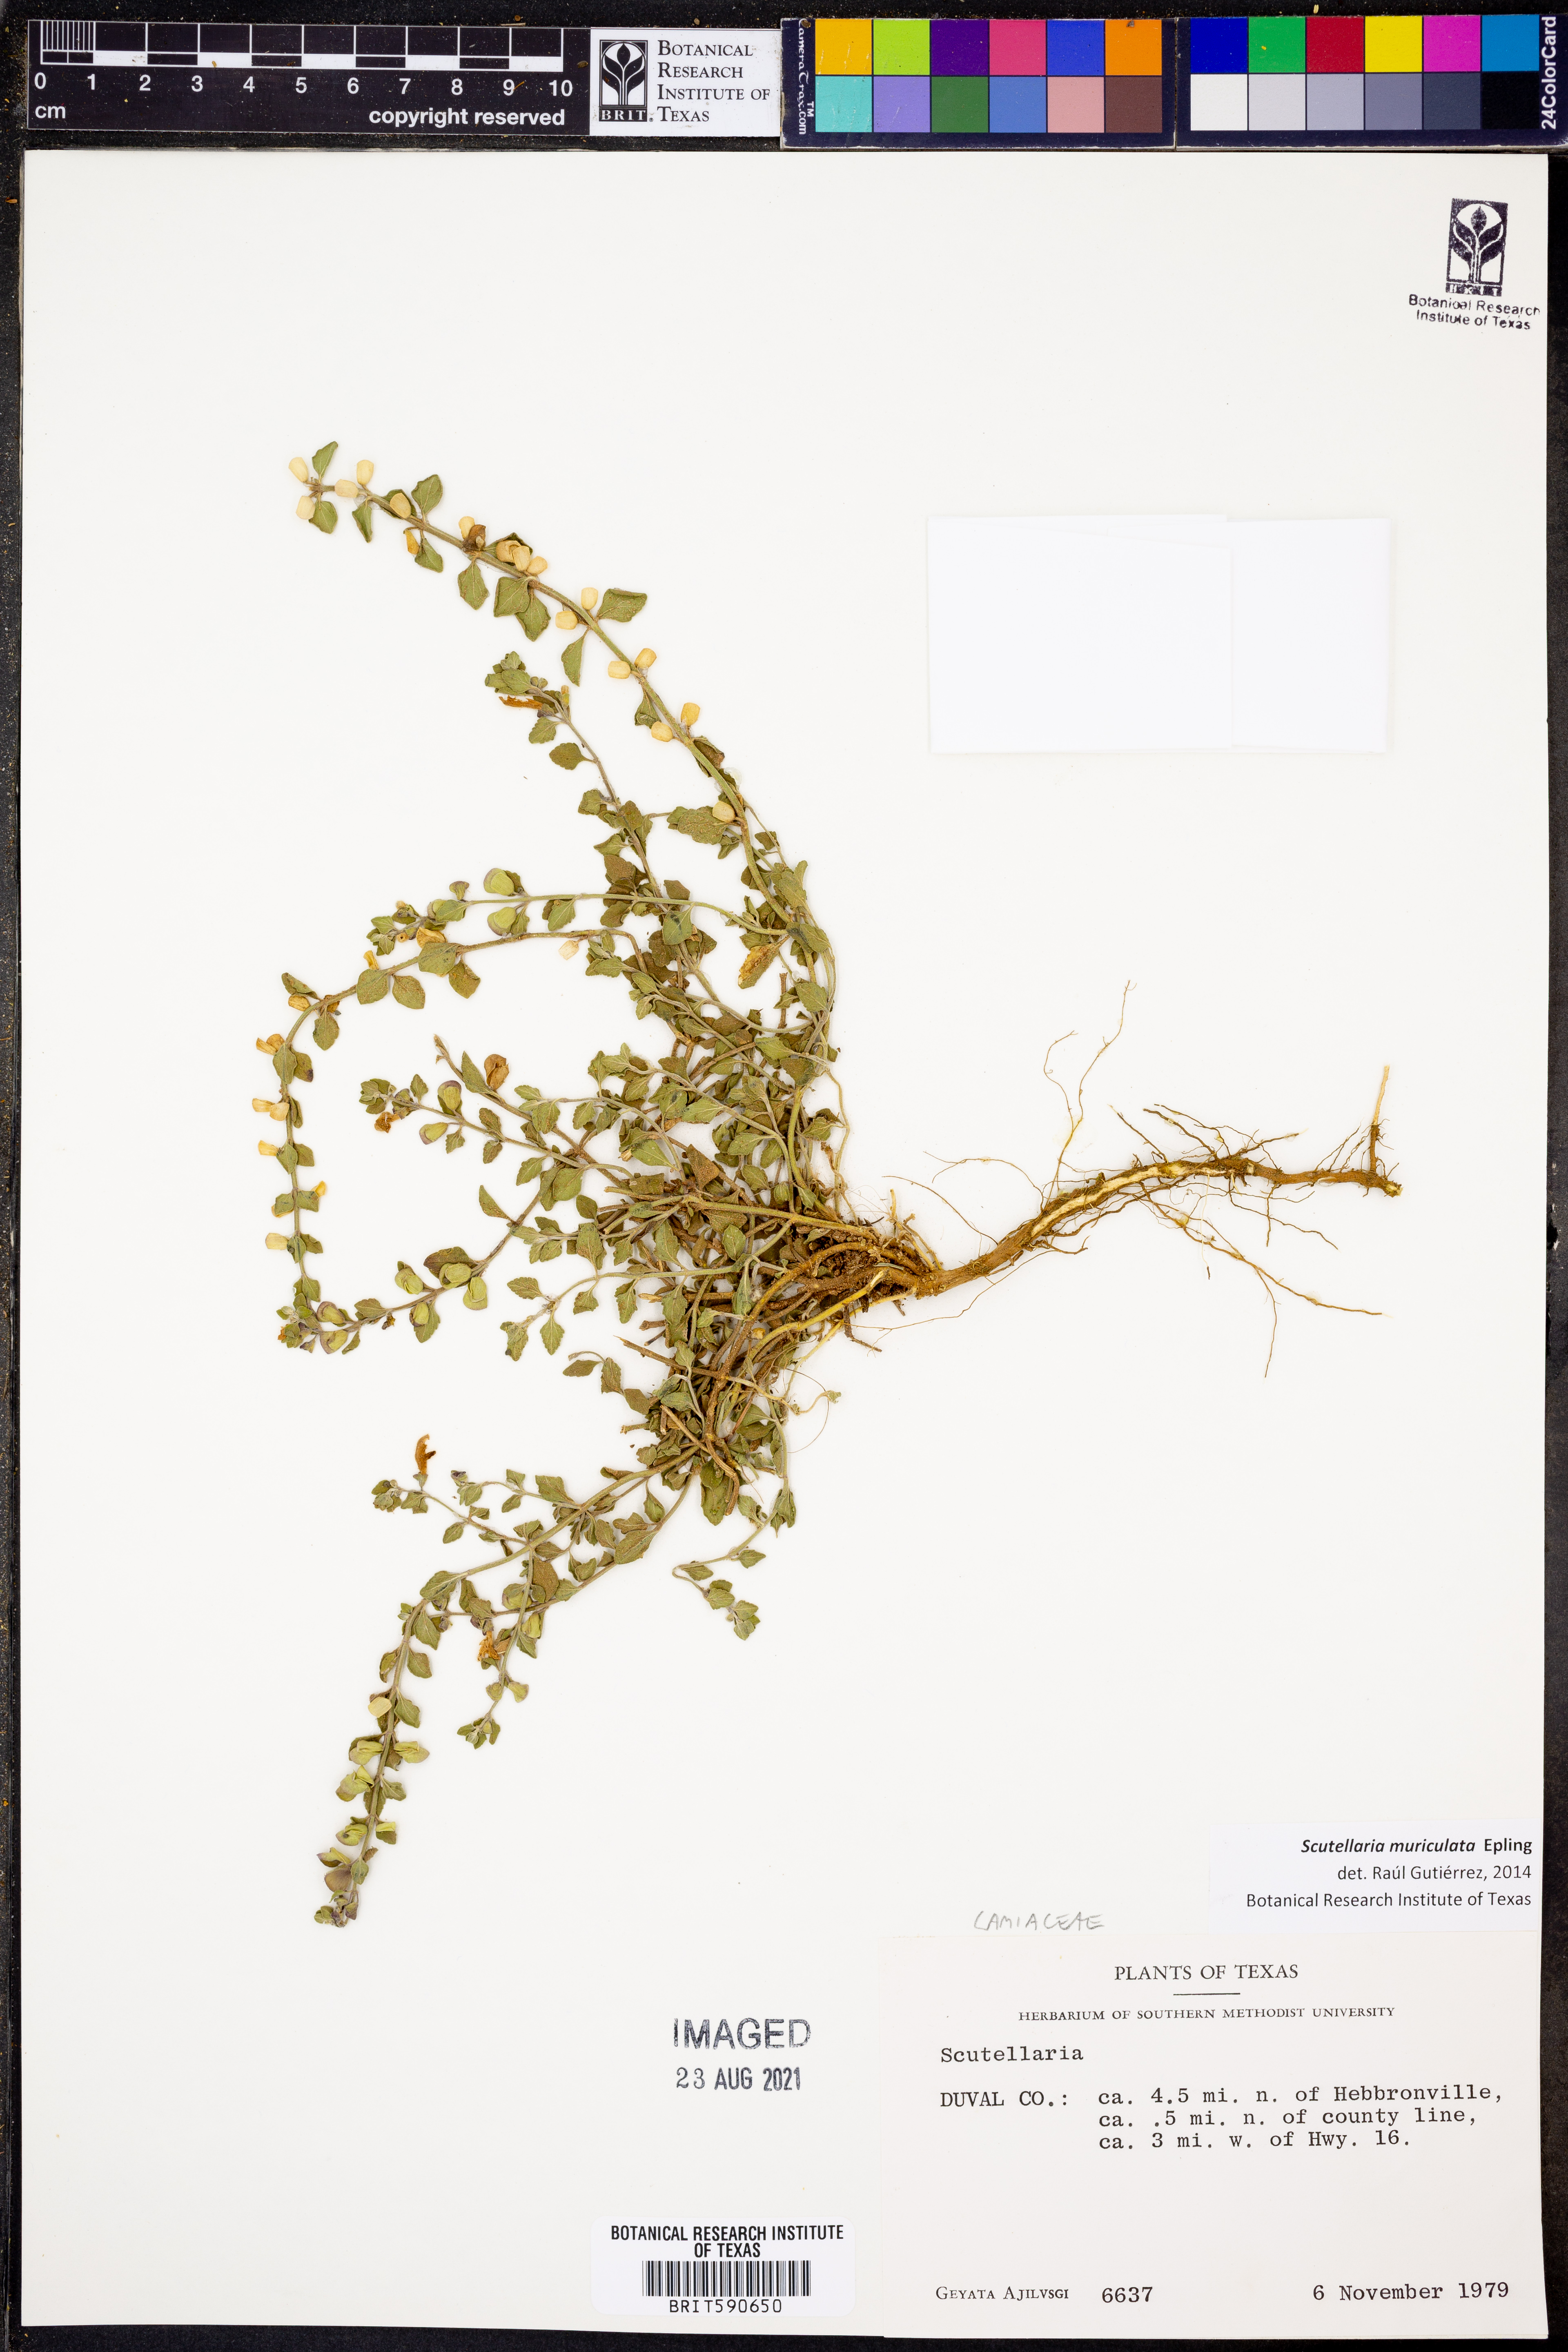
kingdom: Plantae
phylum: Tracheophyta
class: Magnoliopsida
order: Lamiales
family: Lamiaceae
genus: Scutellaria
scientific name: Scutellaria muriculata
